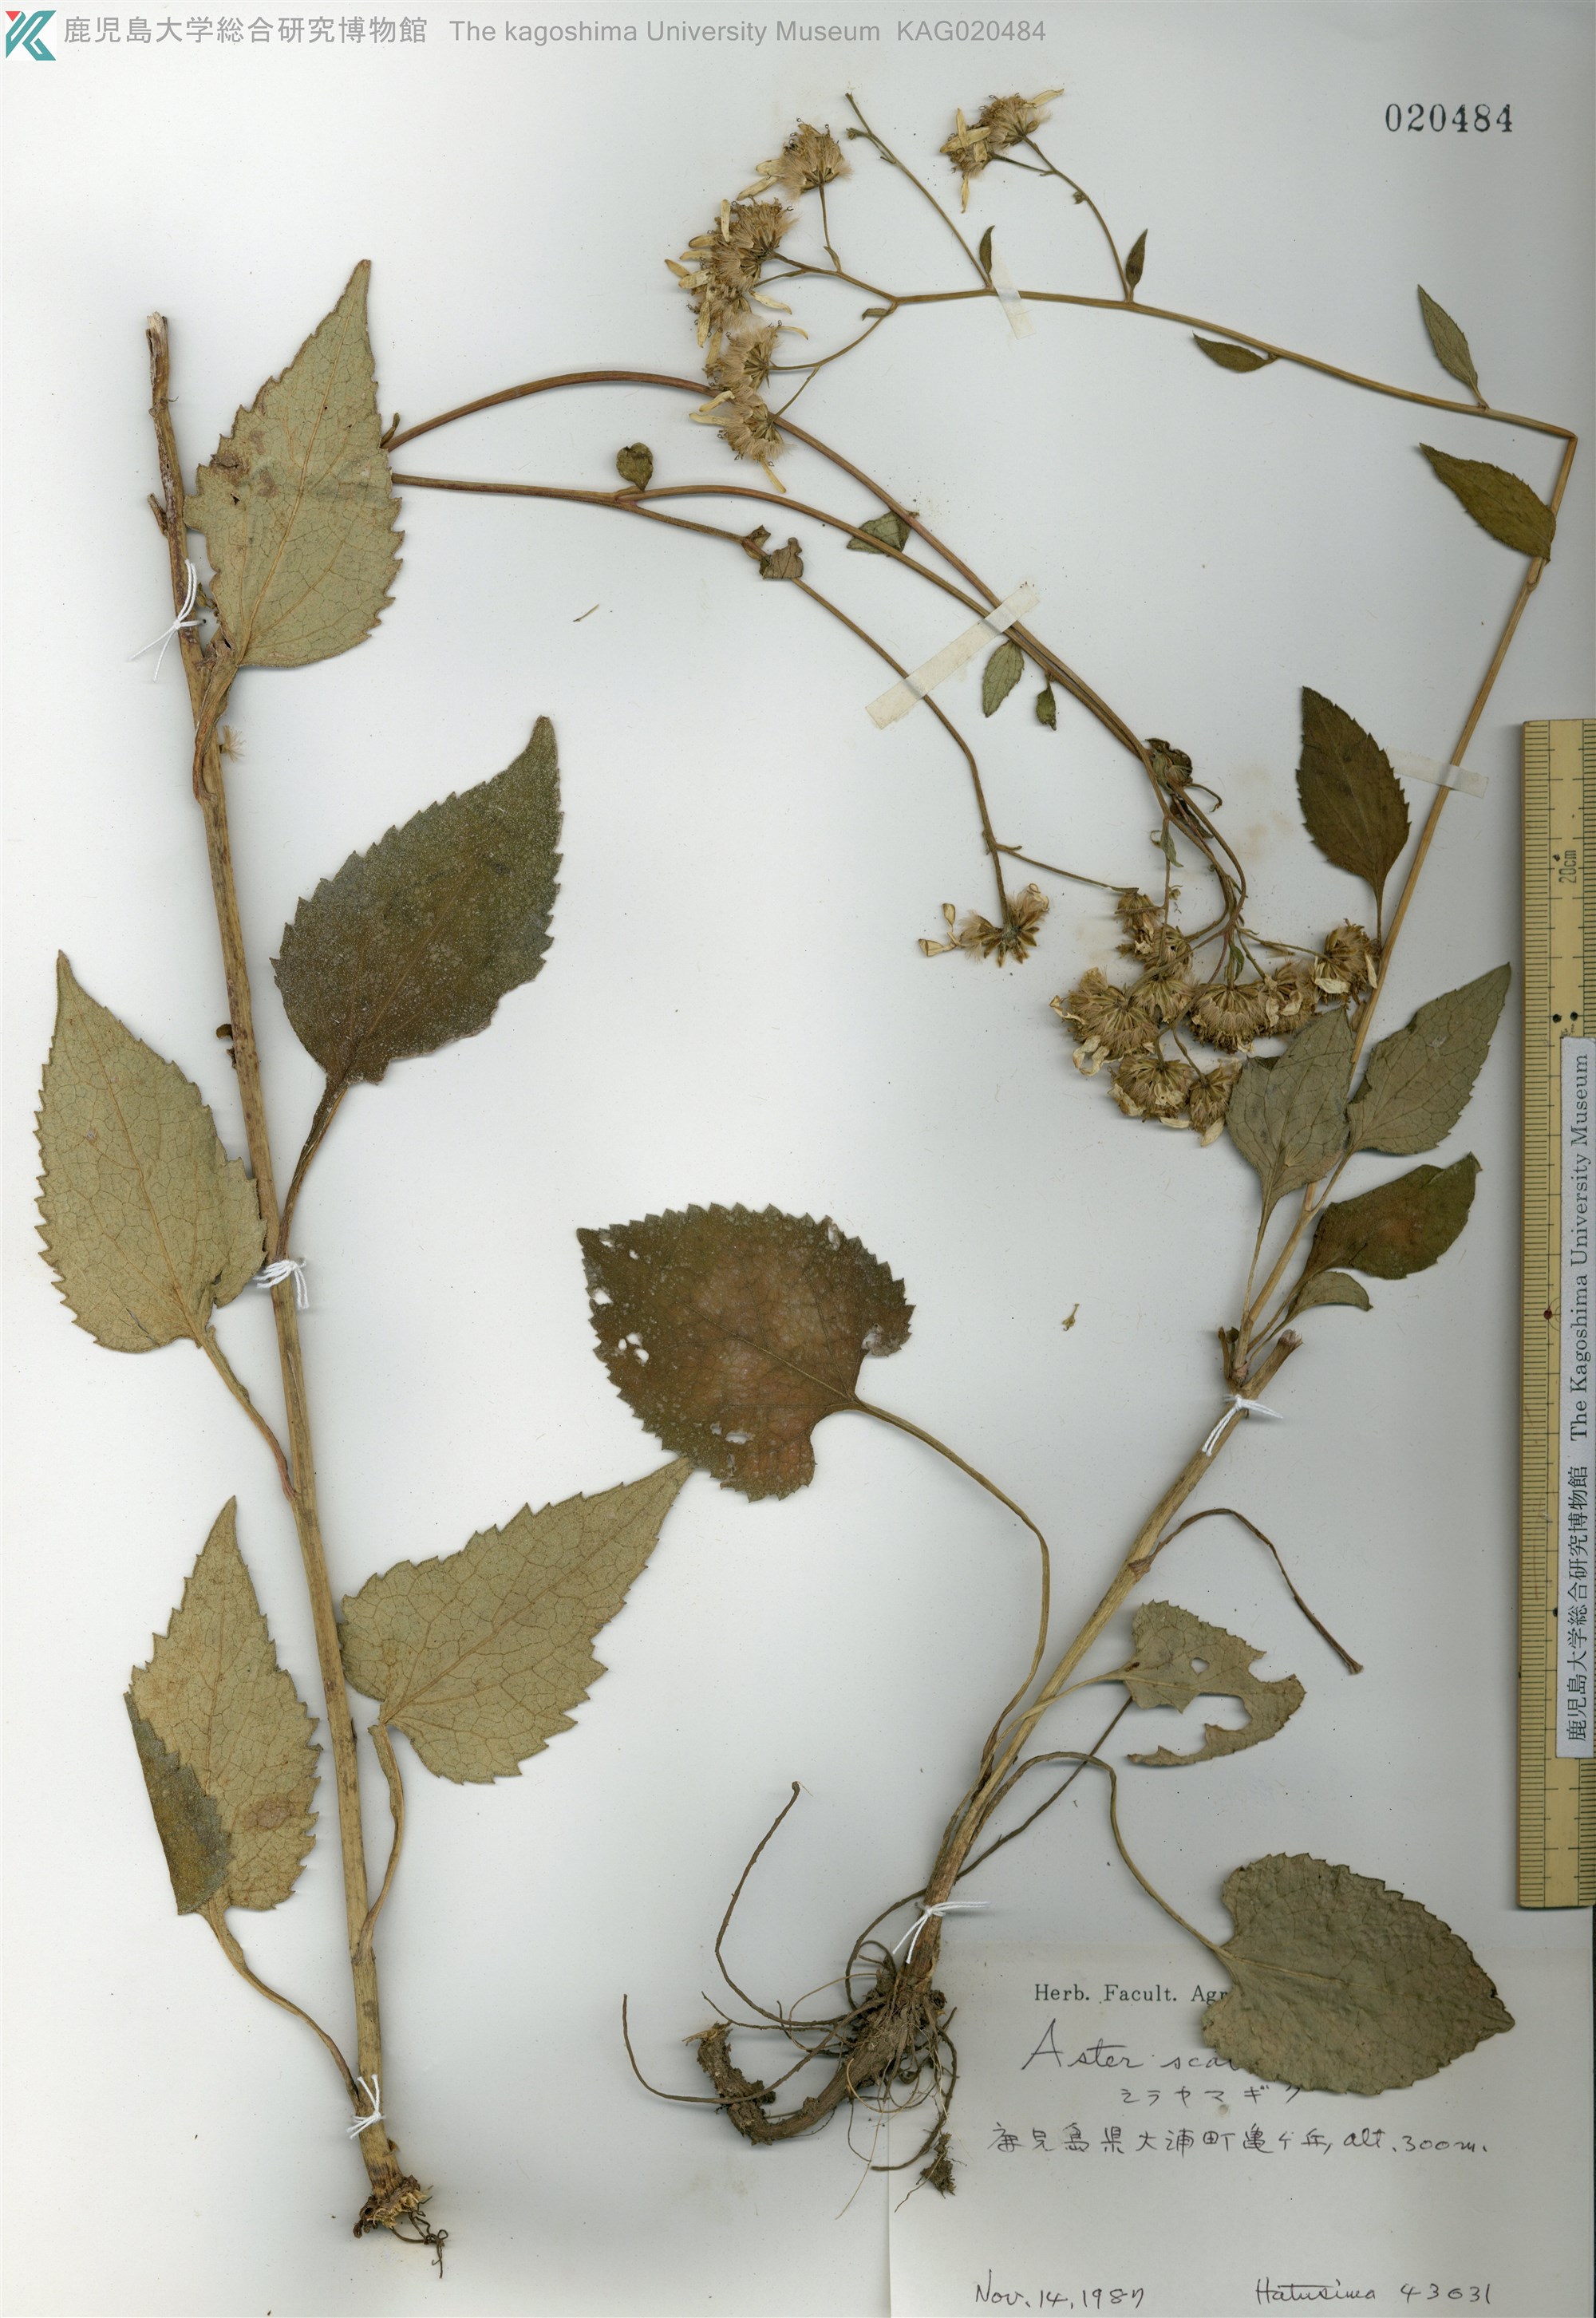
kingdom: Plantae
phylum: Tracheophyta
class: Magnoliopsida
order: Asterales
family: Asteraceae
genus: Cardiagyris
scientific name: Cardiagyris scabra
